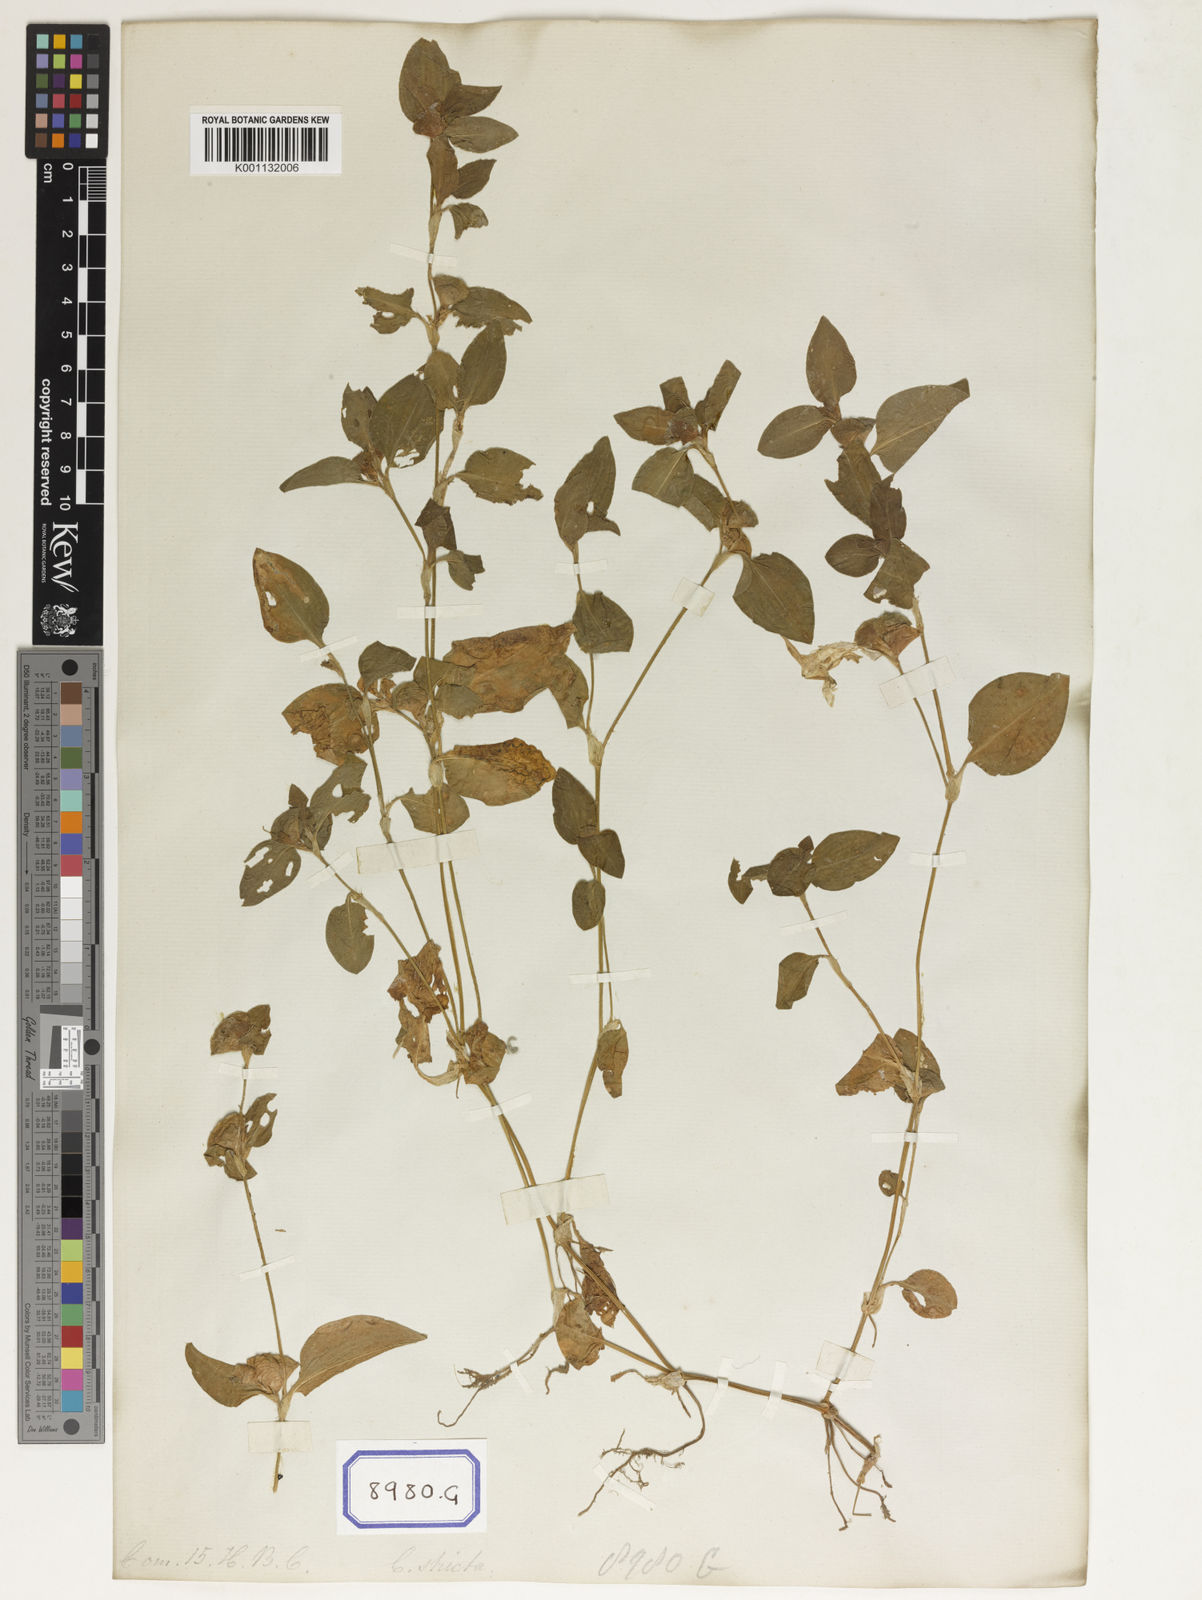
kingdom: Plantae
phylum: Tracheophyta
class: Liliopsida
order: Commelinales
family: Commelinaceae
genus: Commelina
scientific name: Commelina benghalensis
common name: Jio
